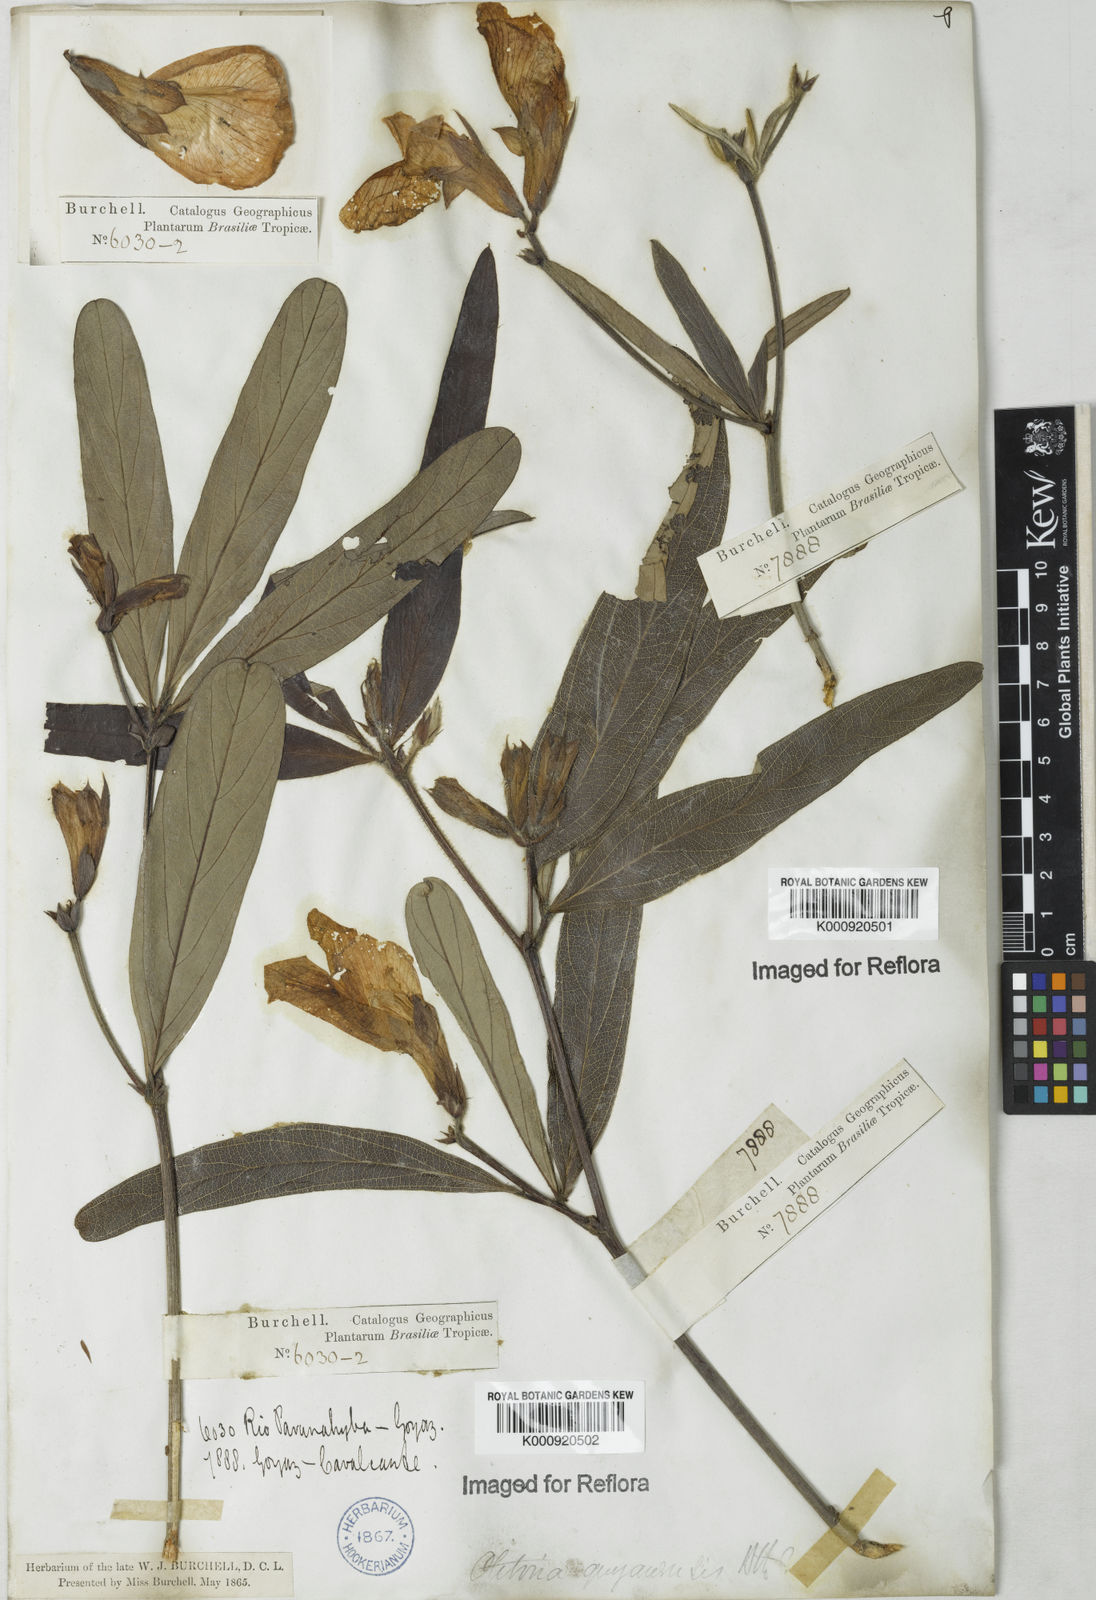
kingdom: Plantae
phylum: Tracheophyta
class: Magnoliopsida
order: Fabales
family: Fabaceae
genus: Clitoria
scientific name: Clitoria guianensis
